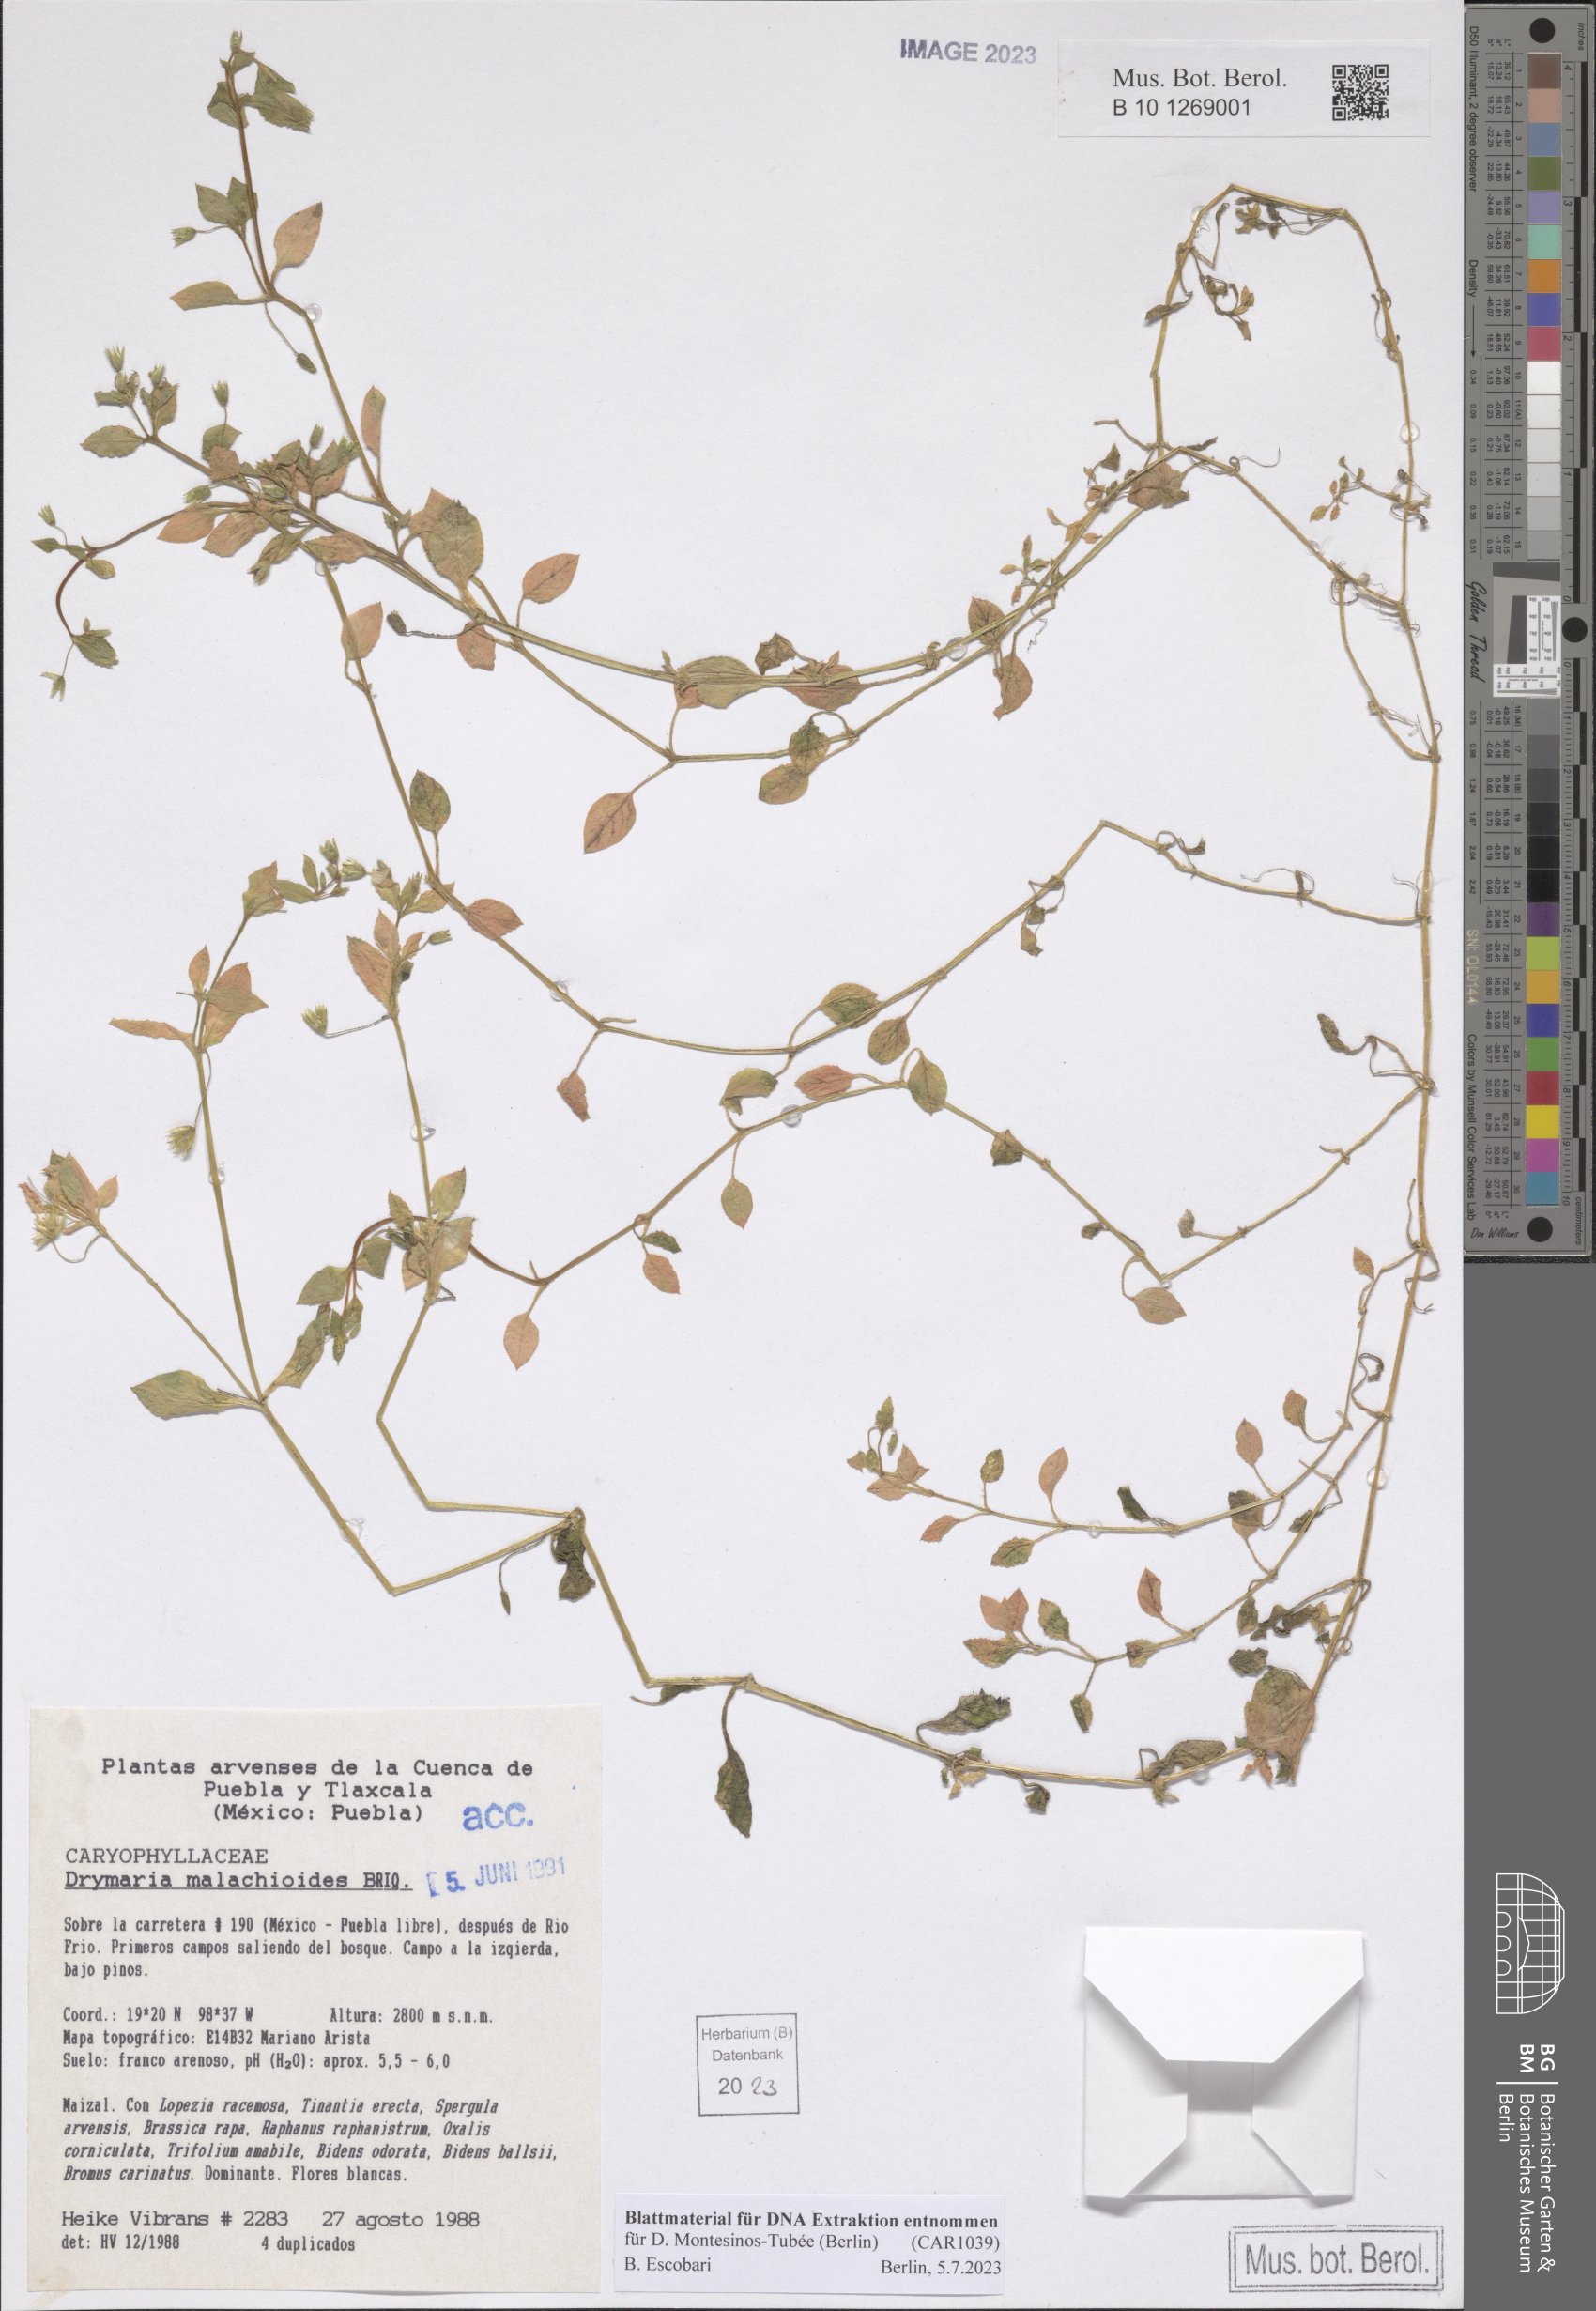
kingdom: Plantae
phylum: Tracheophyta
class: Magnoliopsida
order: Caryophyllales
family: Caryophyllaceae
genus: Drymaria
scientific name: Drymaria malachioides
